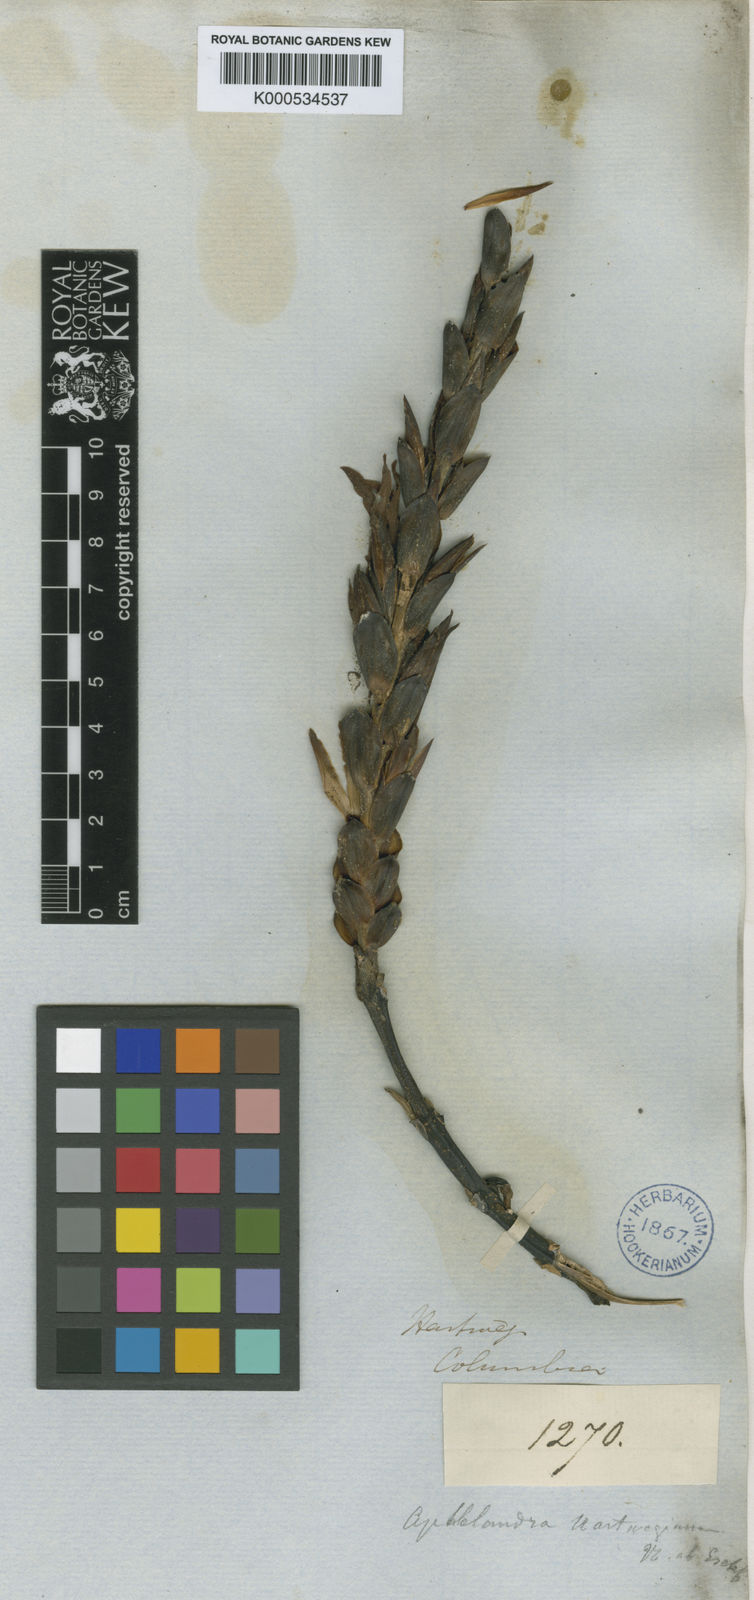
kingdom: Plantae
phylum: Tracheophyta
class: Magnoliopsida
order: Lamiales
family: Acanthaceae
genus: Aphelandra
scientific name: Aphelandra
